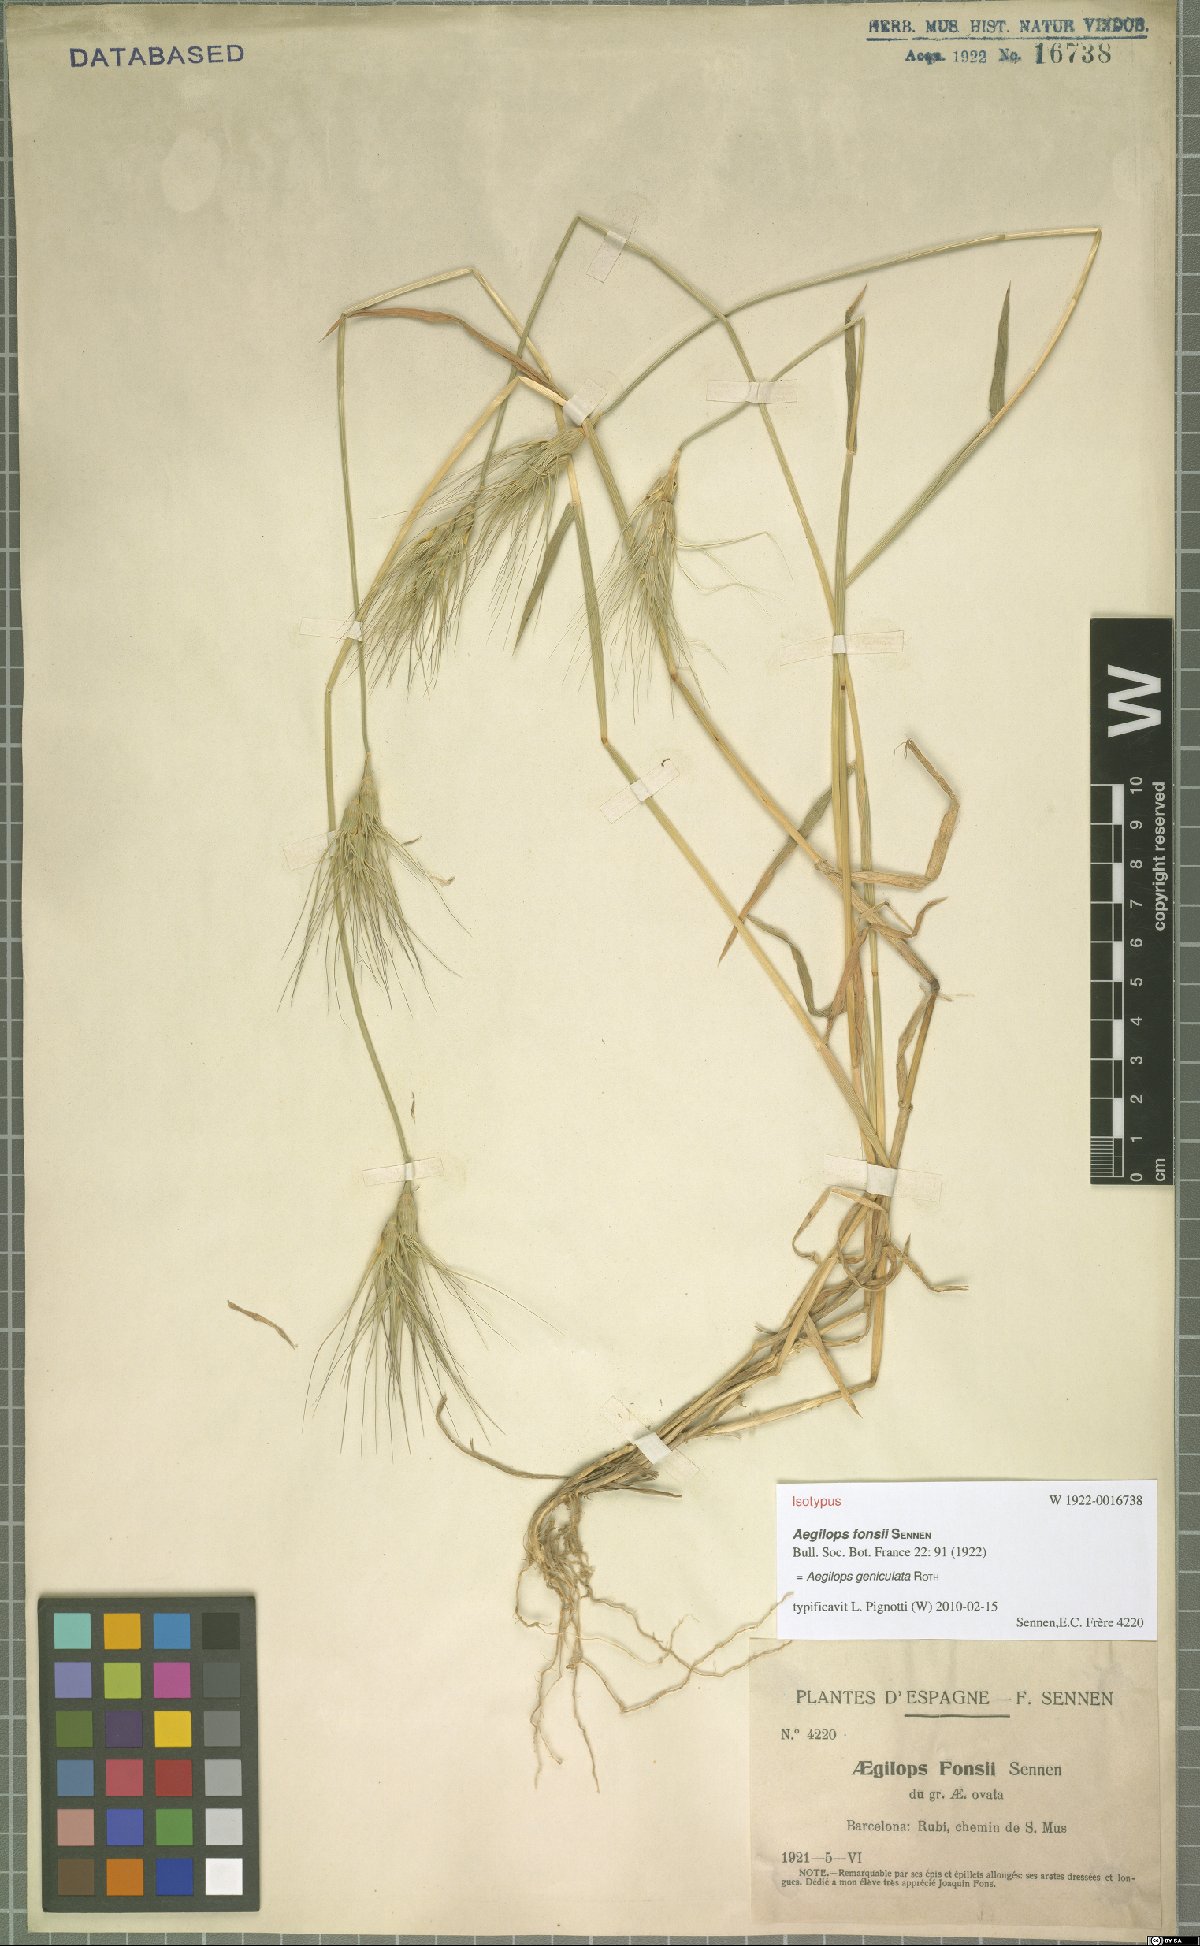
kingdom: Plantae
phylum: Tracheophyta
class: Liliopsida
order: Poales
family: Poaceae
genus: Aegilops
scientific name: Aegilops geniculata
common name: Ovate goat grass
